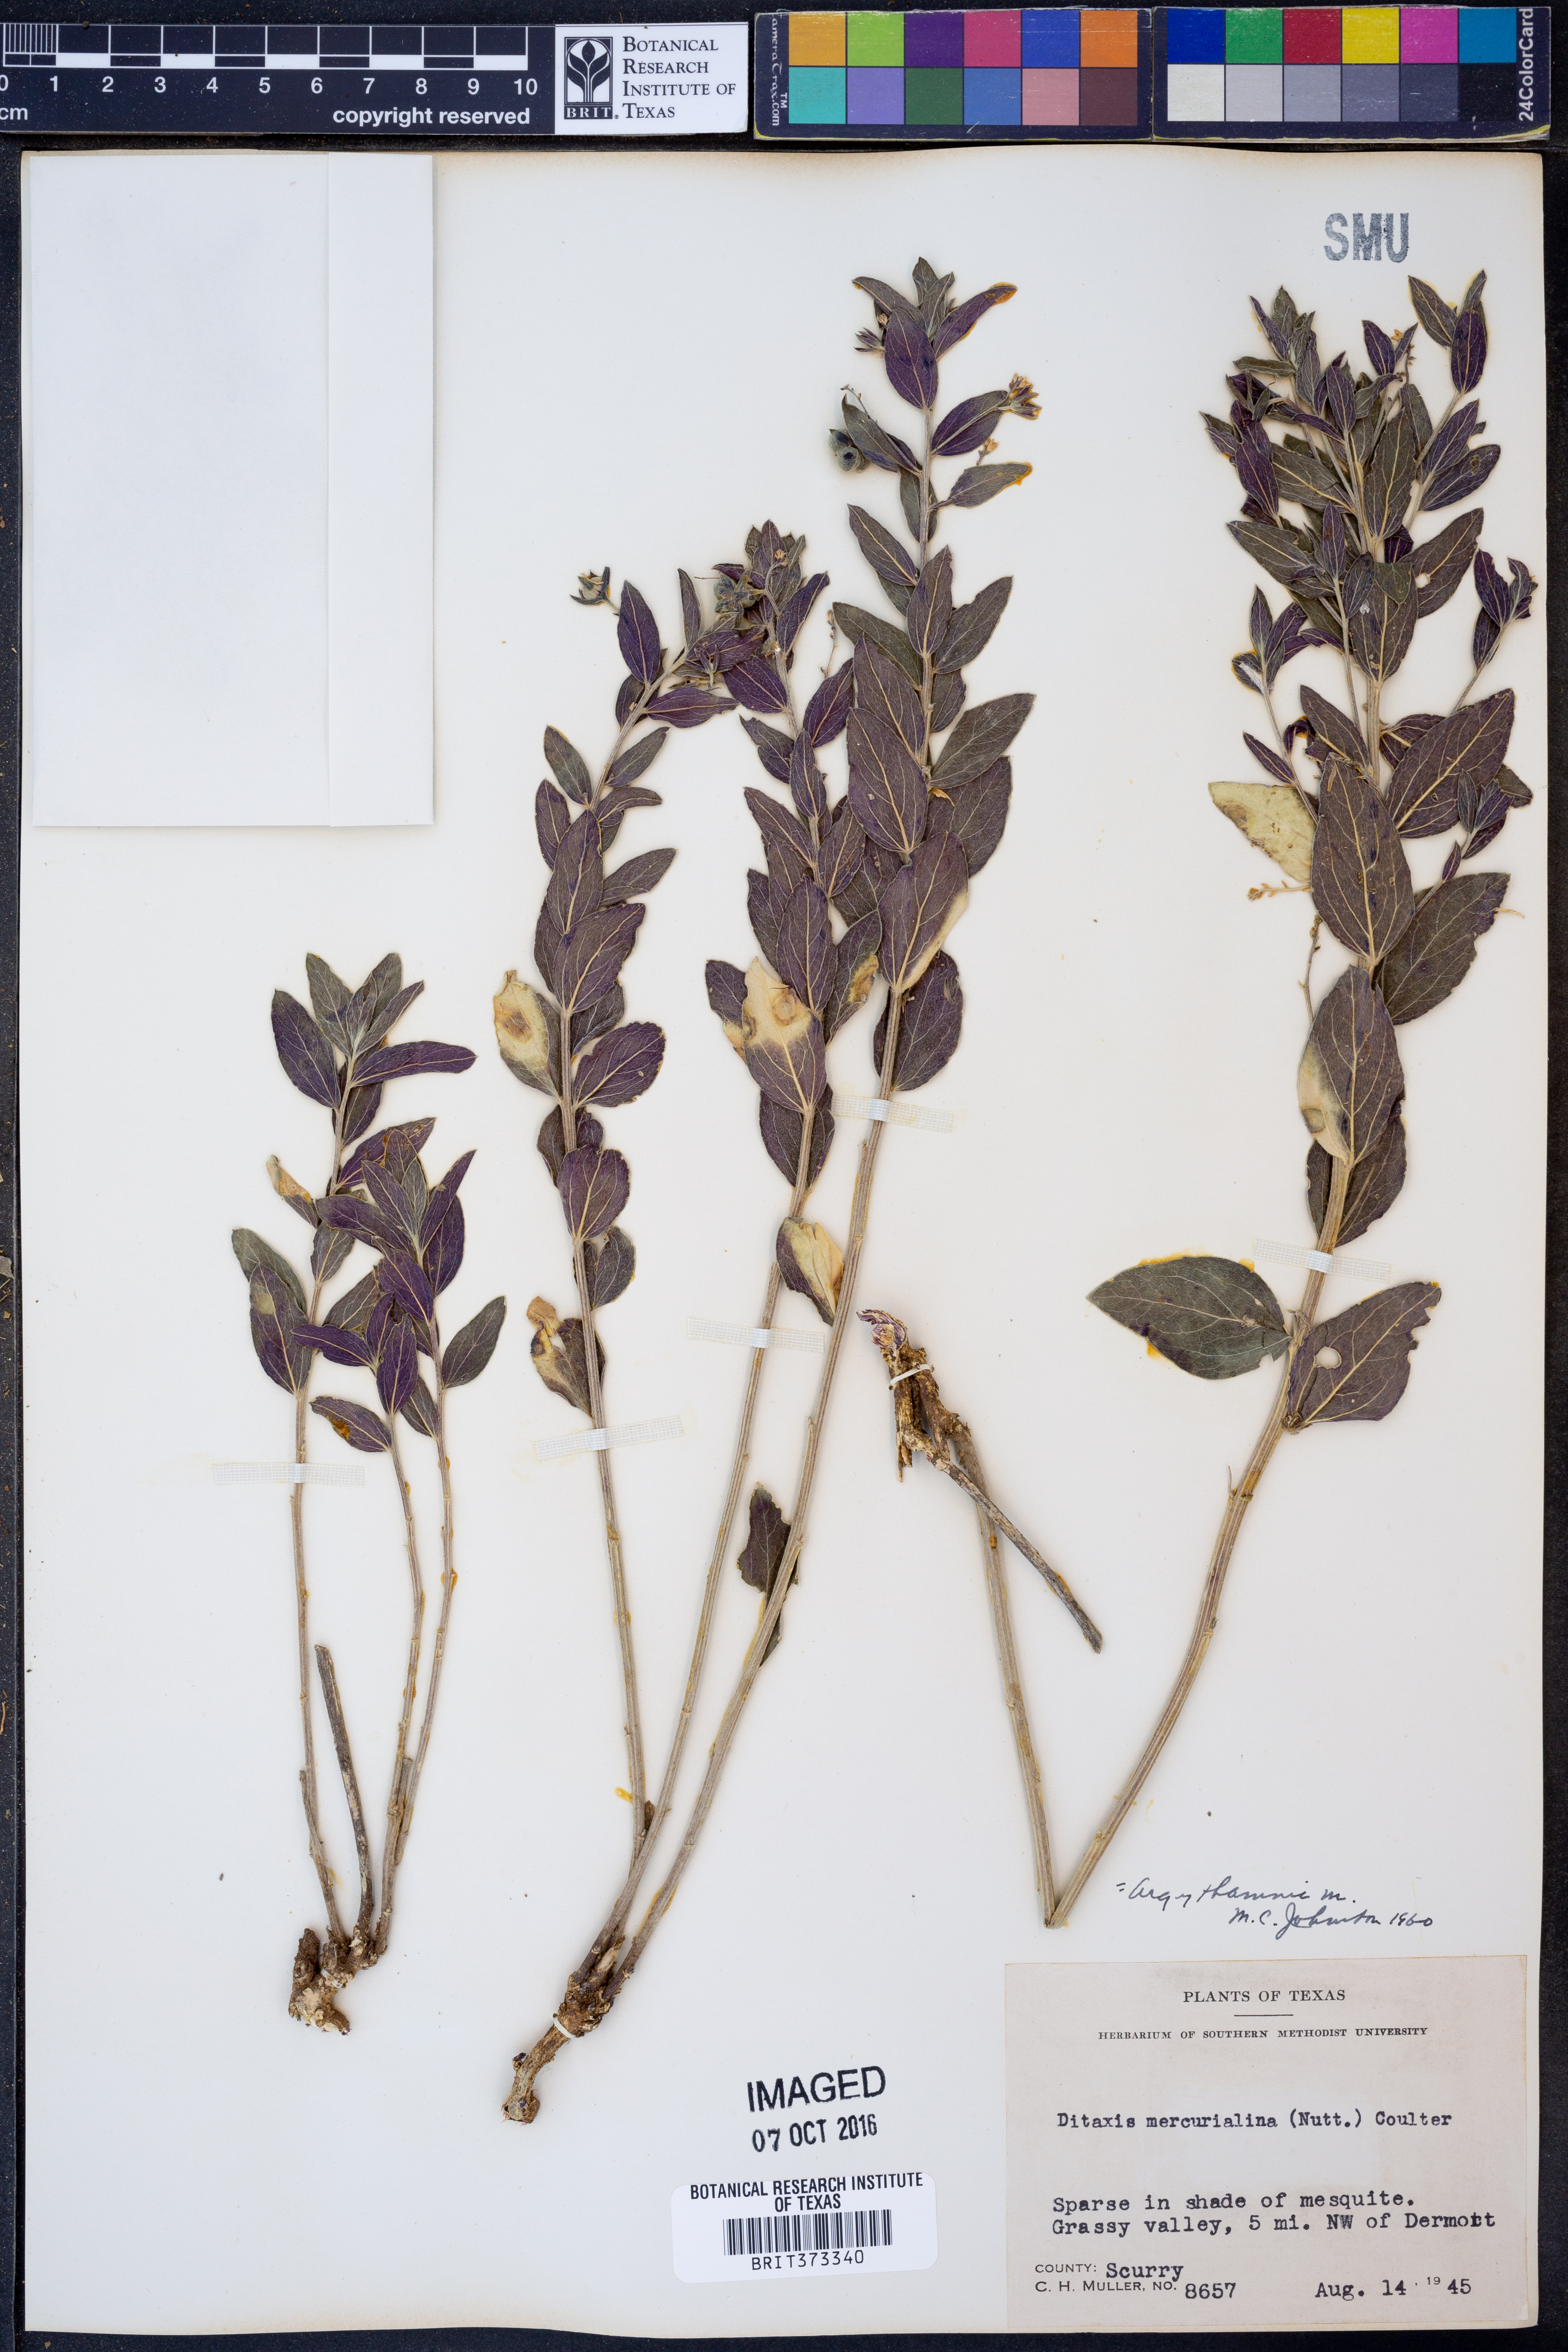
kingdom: Plantae
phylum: Tracheophyta
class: Magnoliopsida
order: Malpighiales
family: Euphorbiaceae
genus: Ditaxis
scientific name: Ditaxis mercurialina
